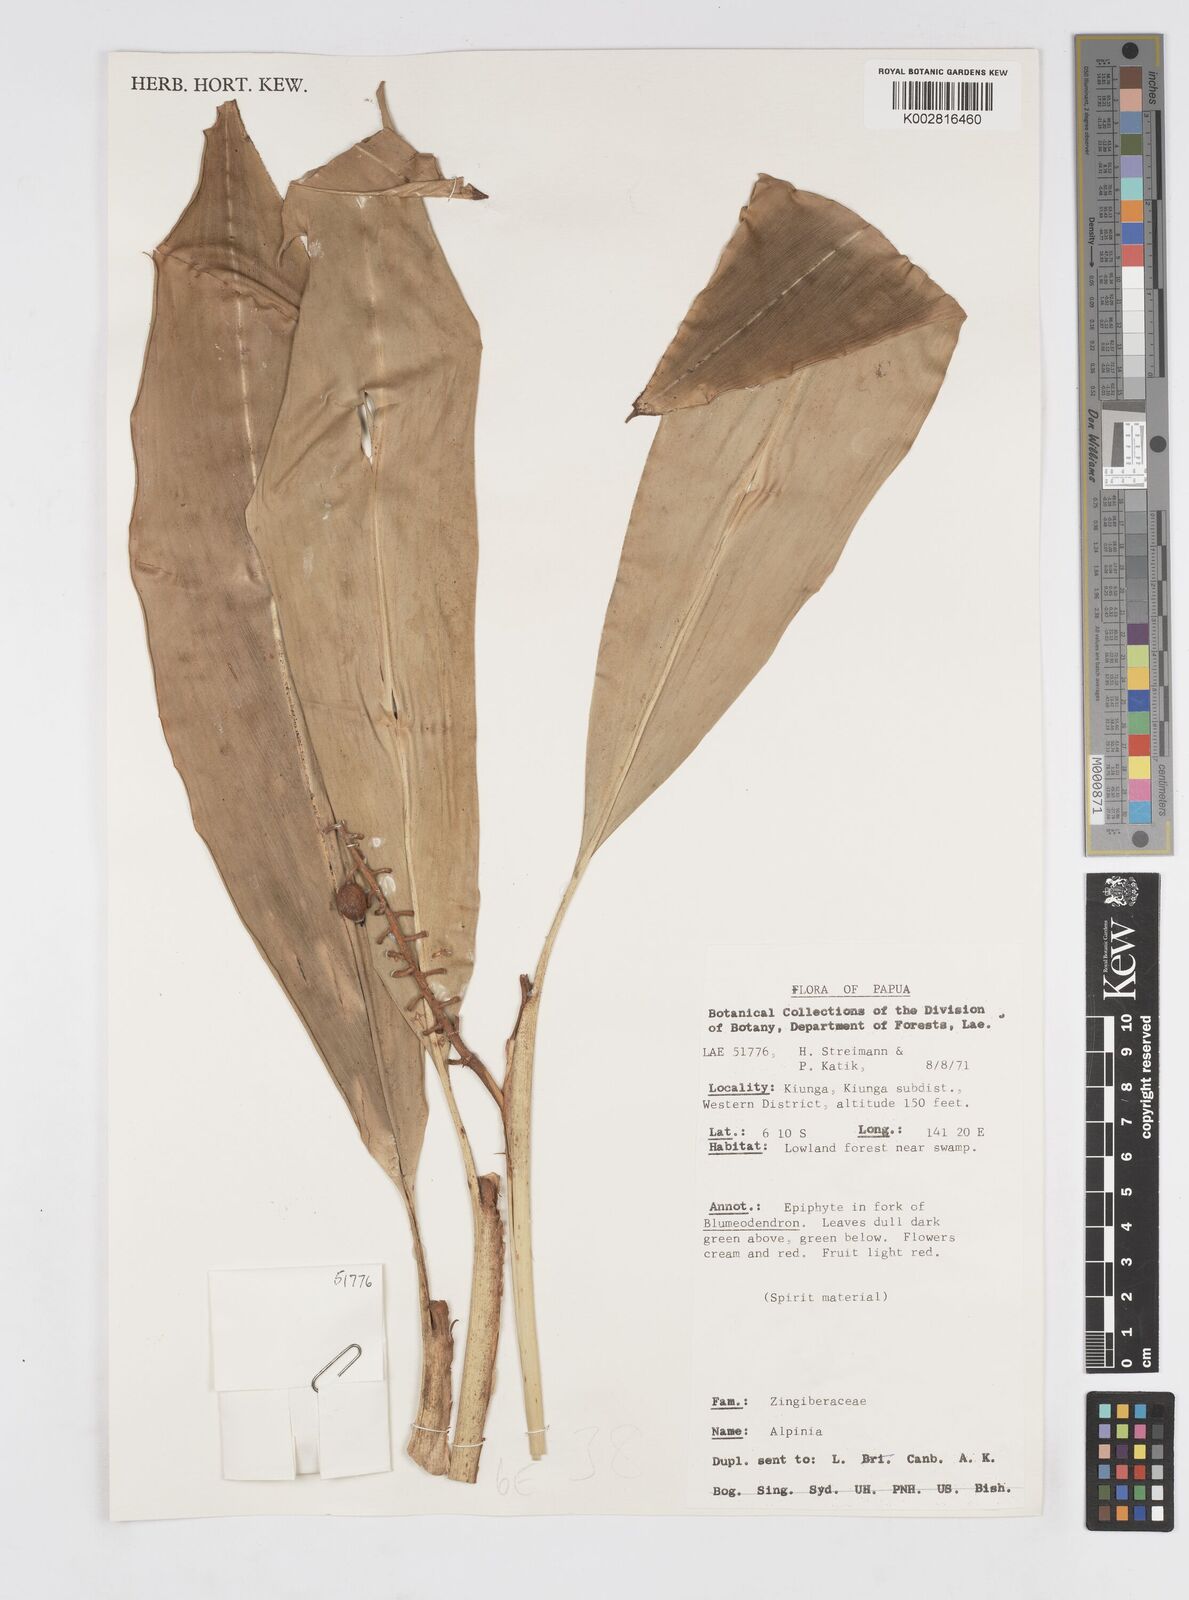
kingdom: Plantae
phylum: Tracheophyta
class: Liliopsida
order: Zingiberales
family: Zingiberaceae
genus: Alpinia
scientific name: Alpinia
